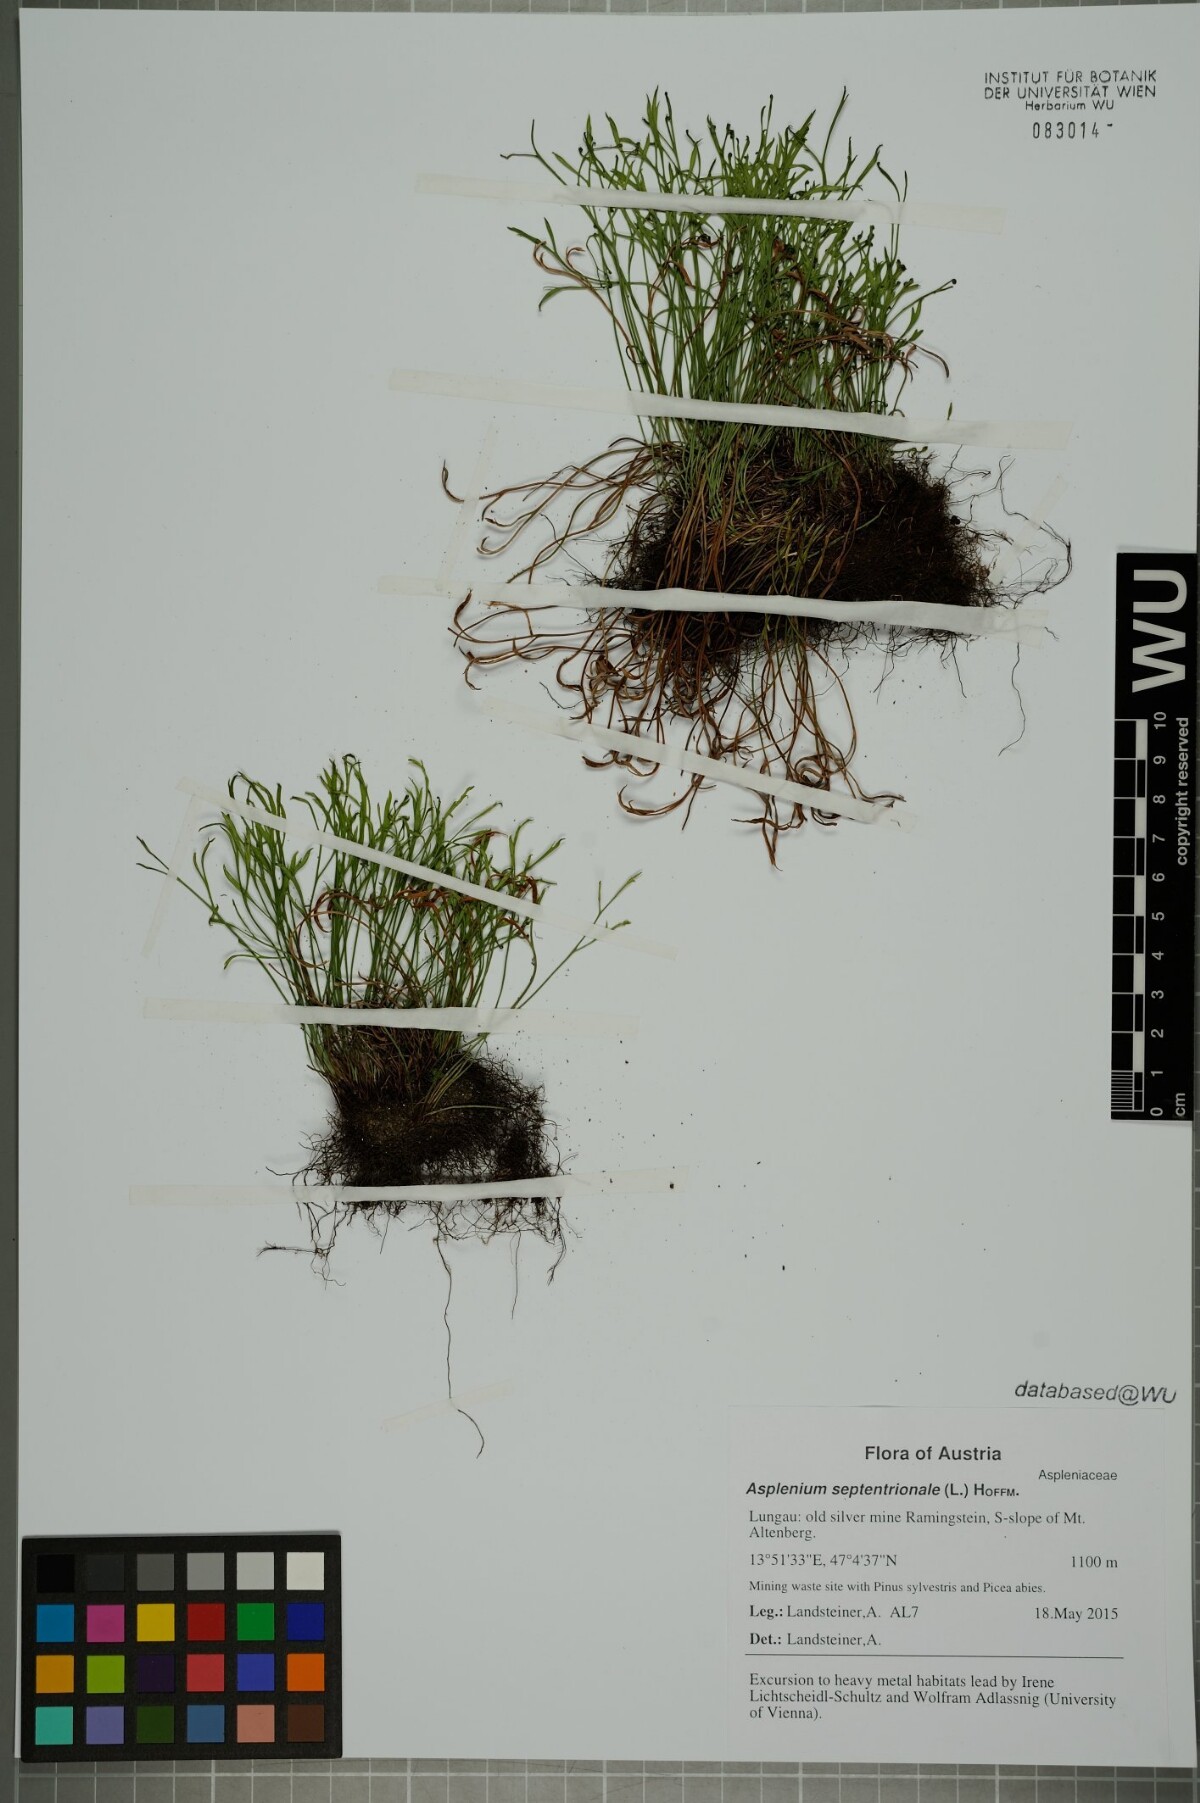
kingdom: Plantae
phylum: Tracheophyta
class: Polypodiopsida
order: Polypodiales
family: Aspleniaceae
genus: Asplenium
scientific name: Asplenium septentrionale
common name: Forked spleenwort
